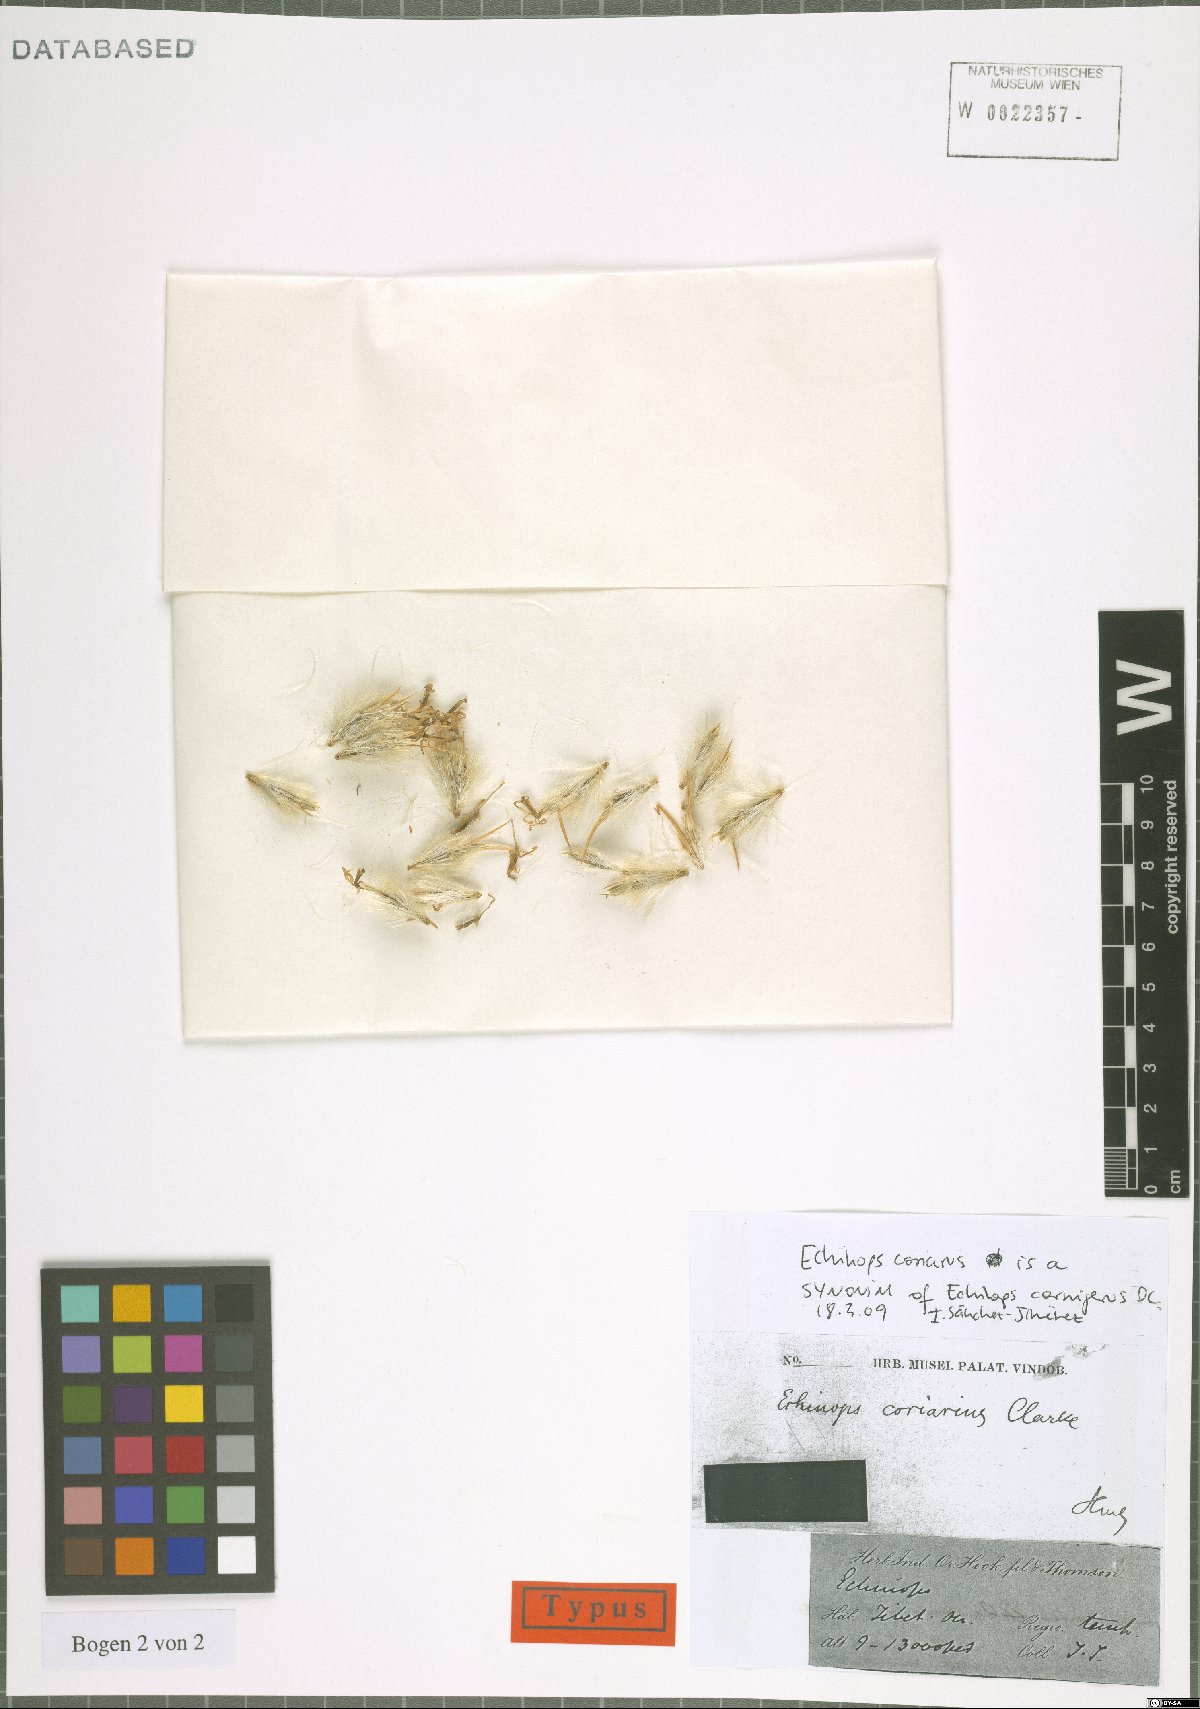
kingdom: Plantae
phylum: Tracheophyta
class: Magnoliopsida
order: Asterales
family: Asteraceae
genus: Echinops
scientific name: Echinops cornigerus
